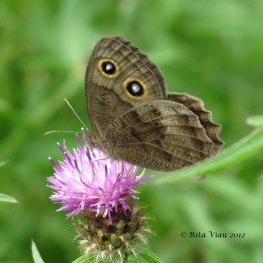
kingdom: Animalia
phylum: Arthropoda
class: Insecta
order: Lepidoptera
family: Nymphalidae
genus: Cercyonis
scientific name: Cercyonis pegala
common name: Common Wood-Nymph
